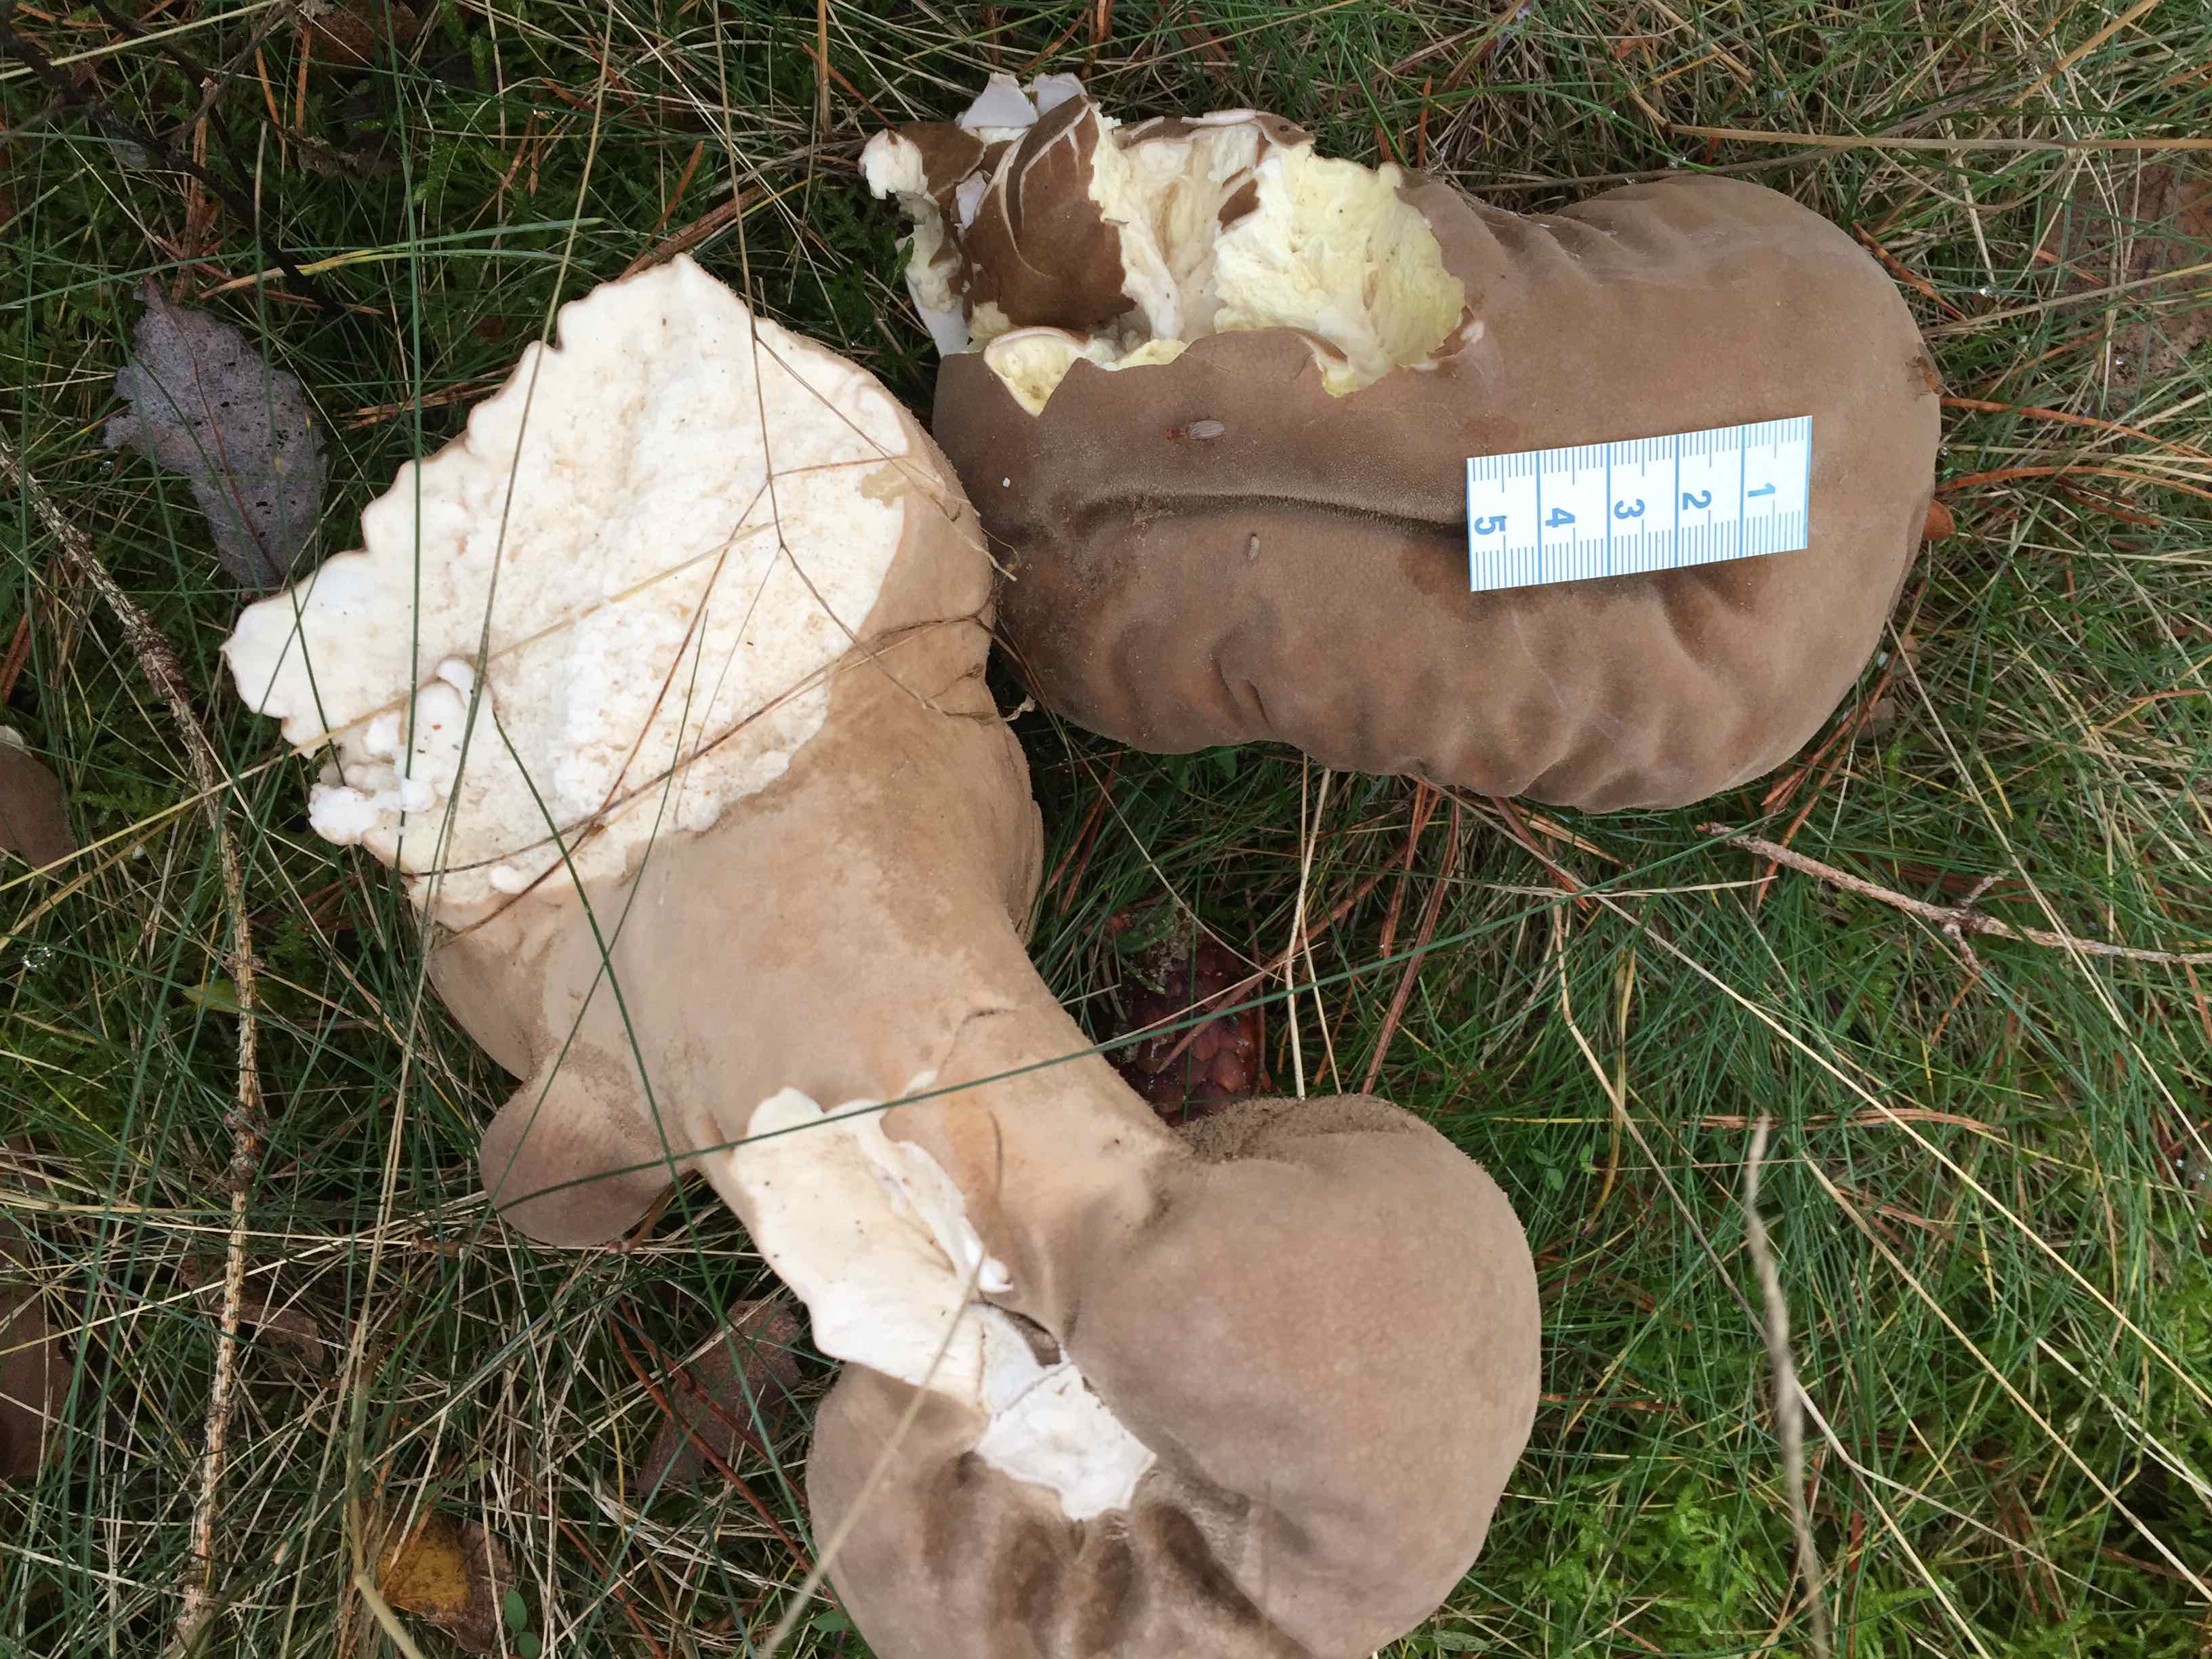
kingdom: Fungi
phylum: Basidiomycota
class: Agaricomycetes
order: Agaricales
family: Lycoperdaceae
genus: Lycoperdon
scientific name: Lycoperdon excipuliforme
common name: højstokket støvbold
